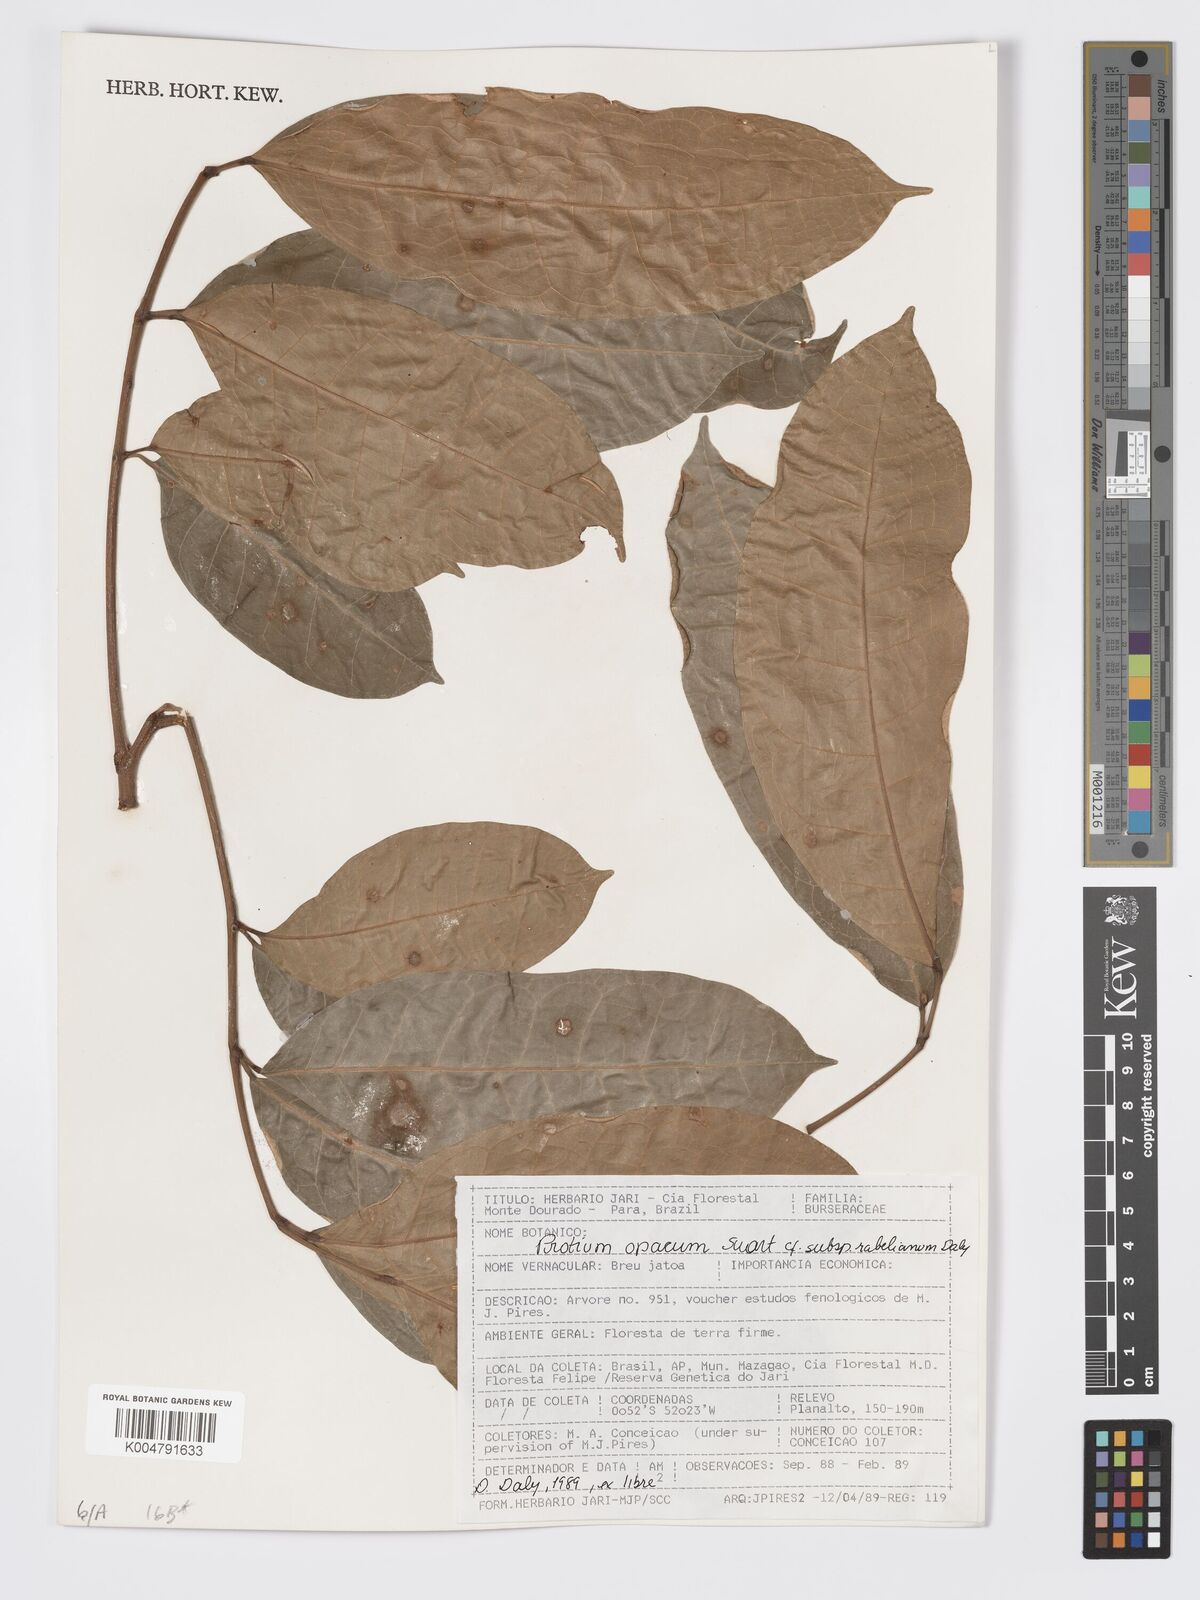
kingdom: Plantae
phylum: Tracheophyta
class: Magnoliopsida
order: Sapindales
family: Burseraceae
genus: Protium
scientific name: Protium opacum
